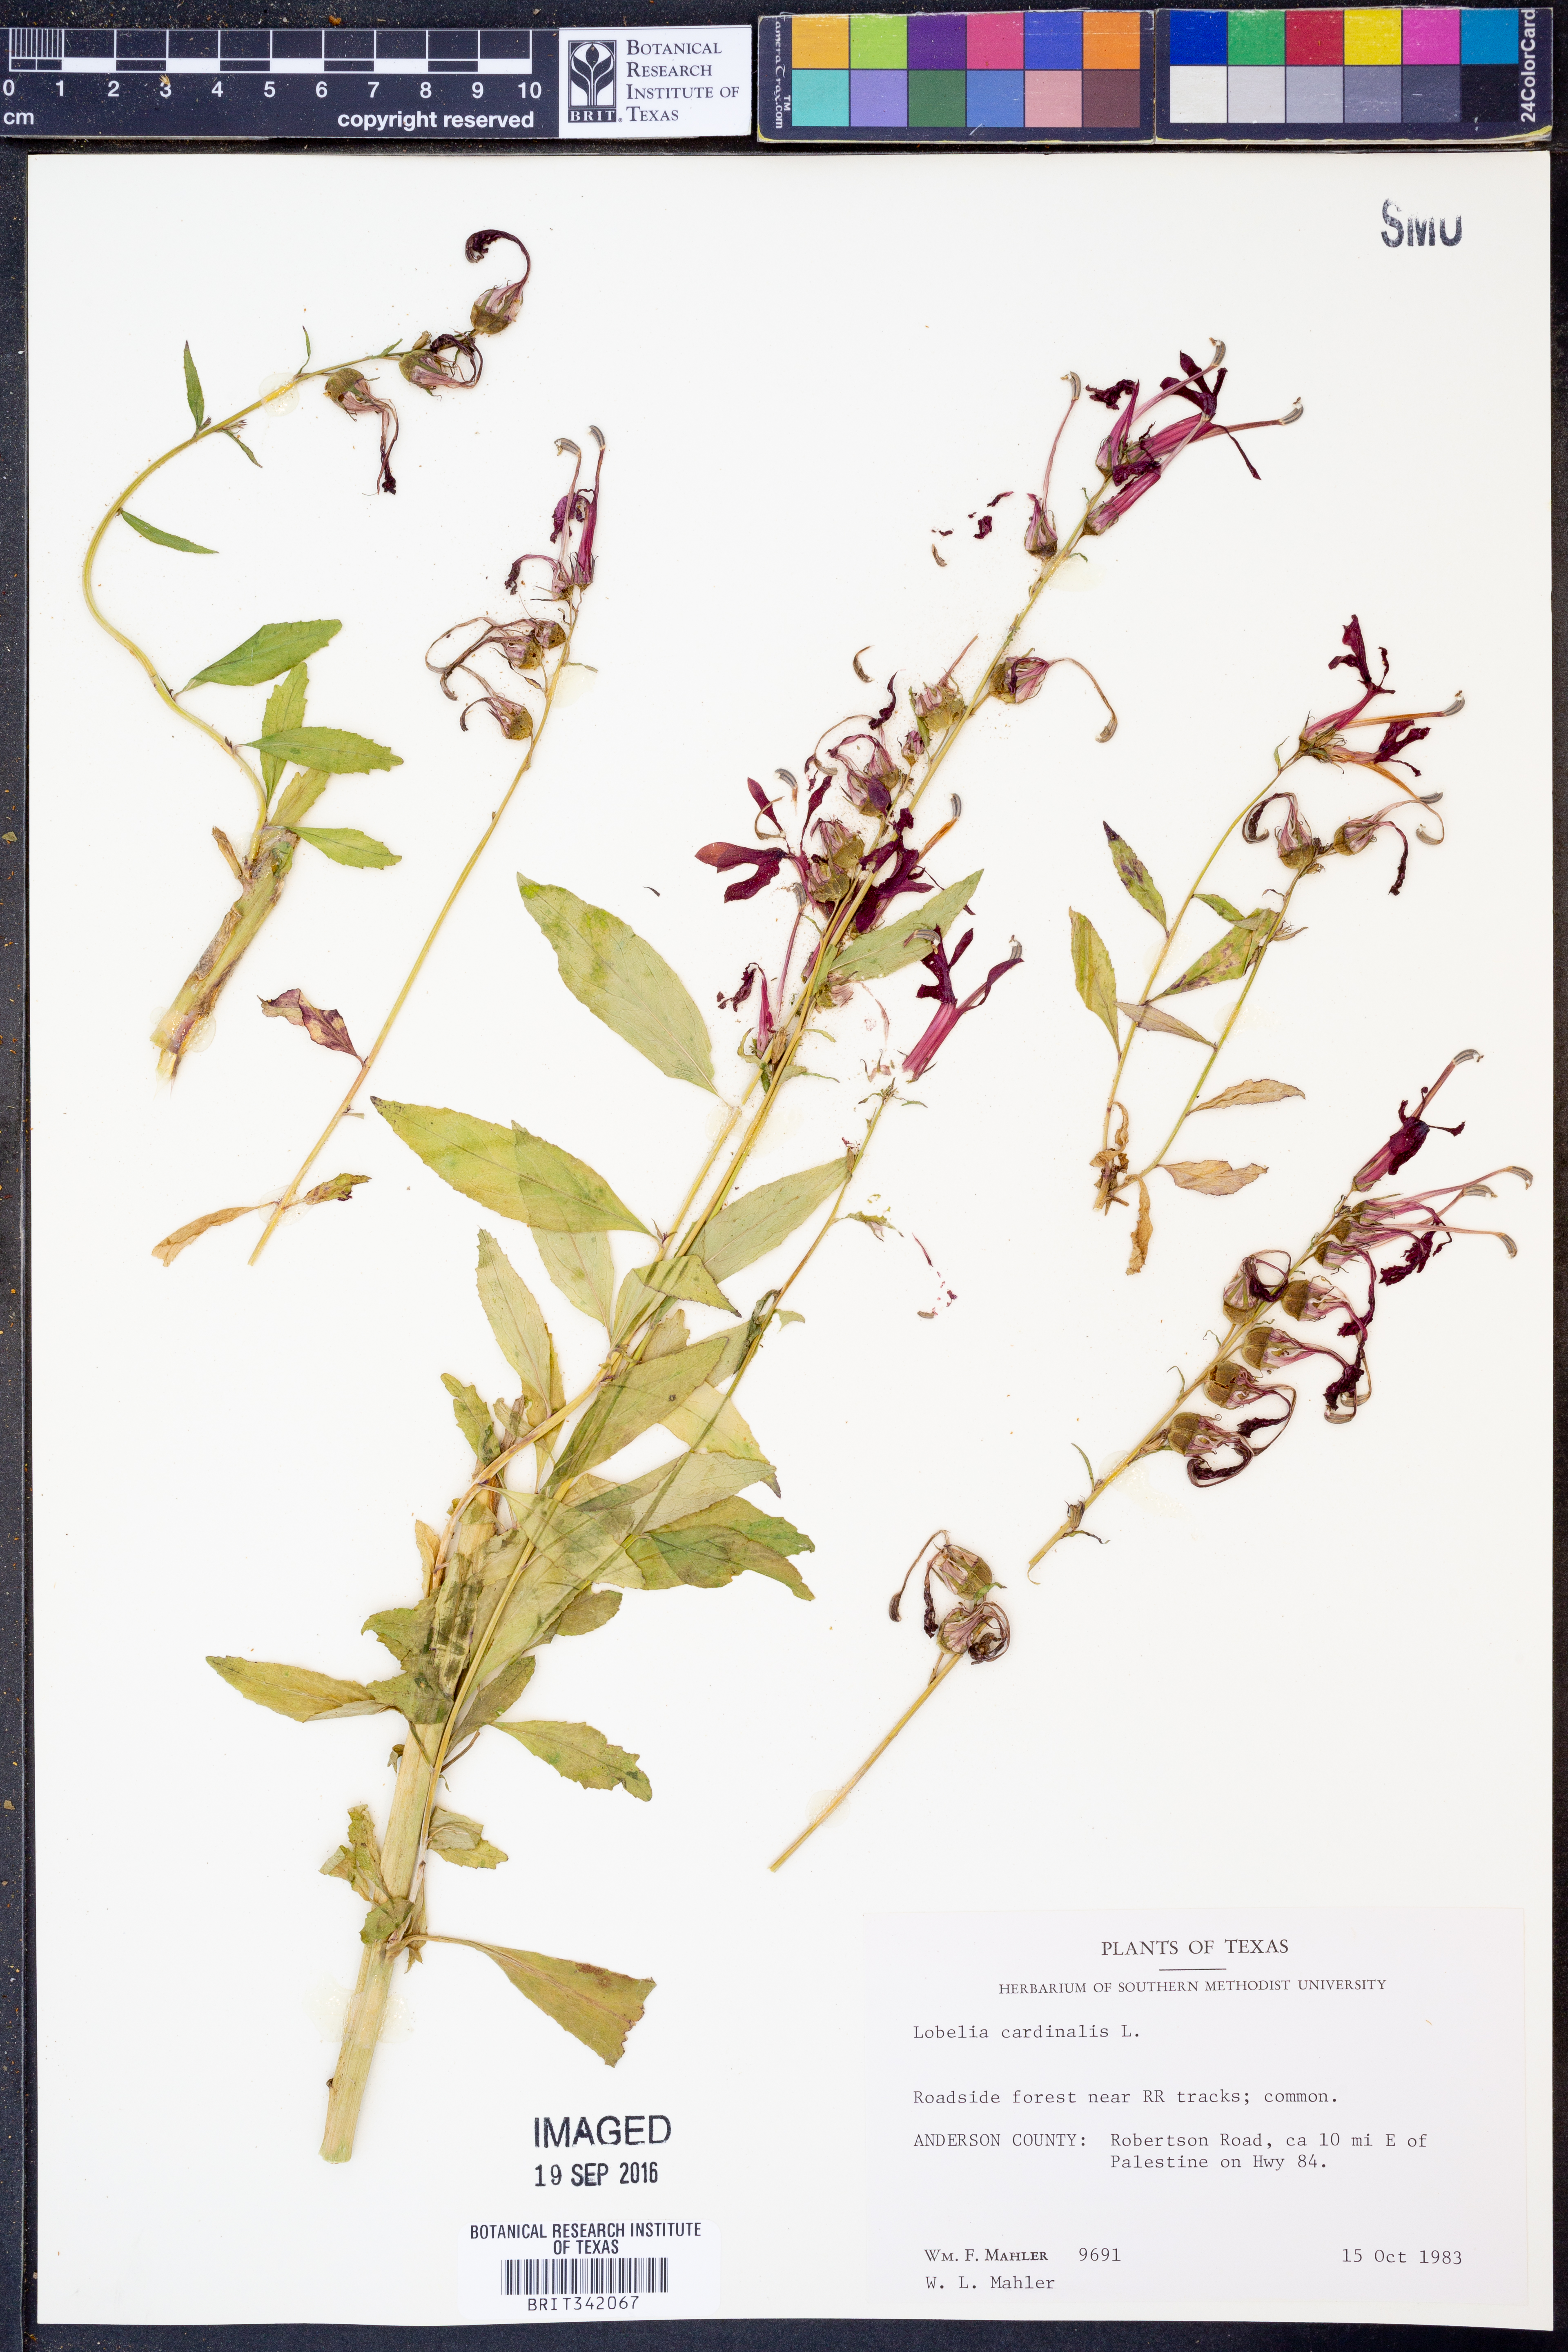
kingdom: Plantae
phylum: Tracheophyta
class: Magnoliopsida
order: Asterales
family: Campanulaceae
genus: Lobelia
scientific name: Lobelia cardinalis
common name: Cardinal flower
